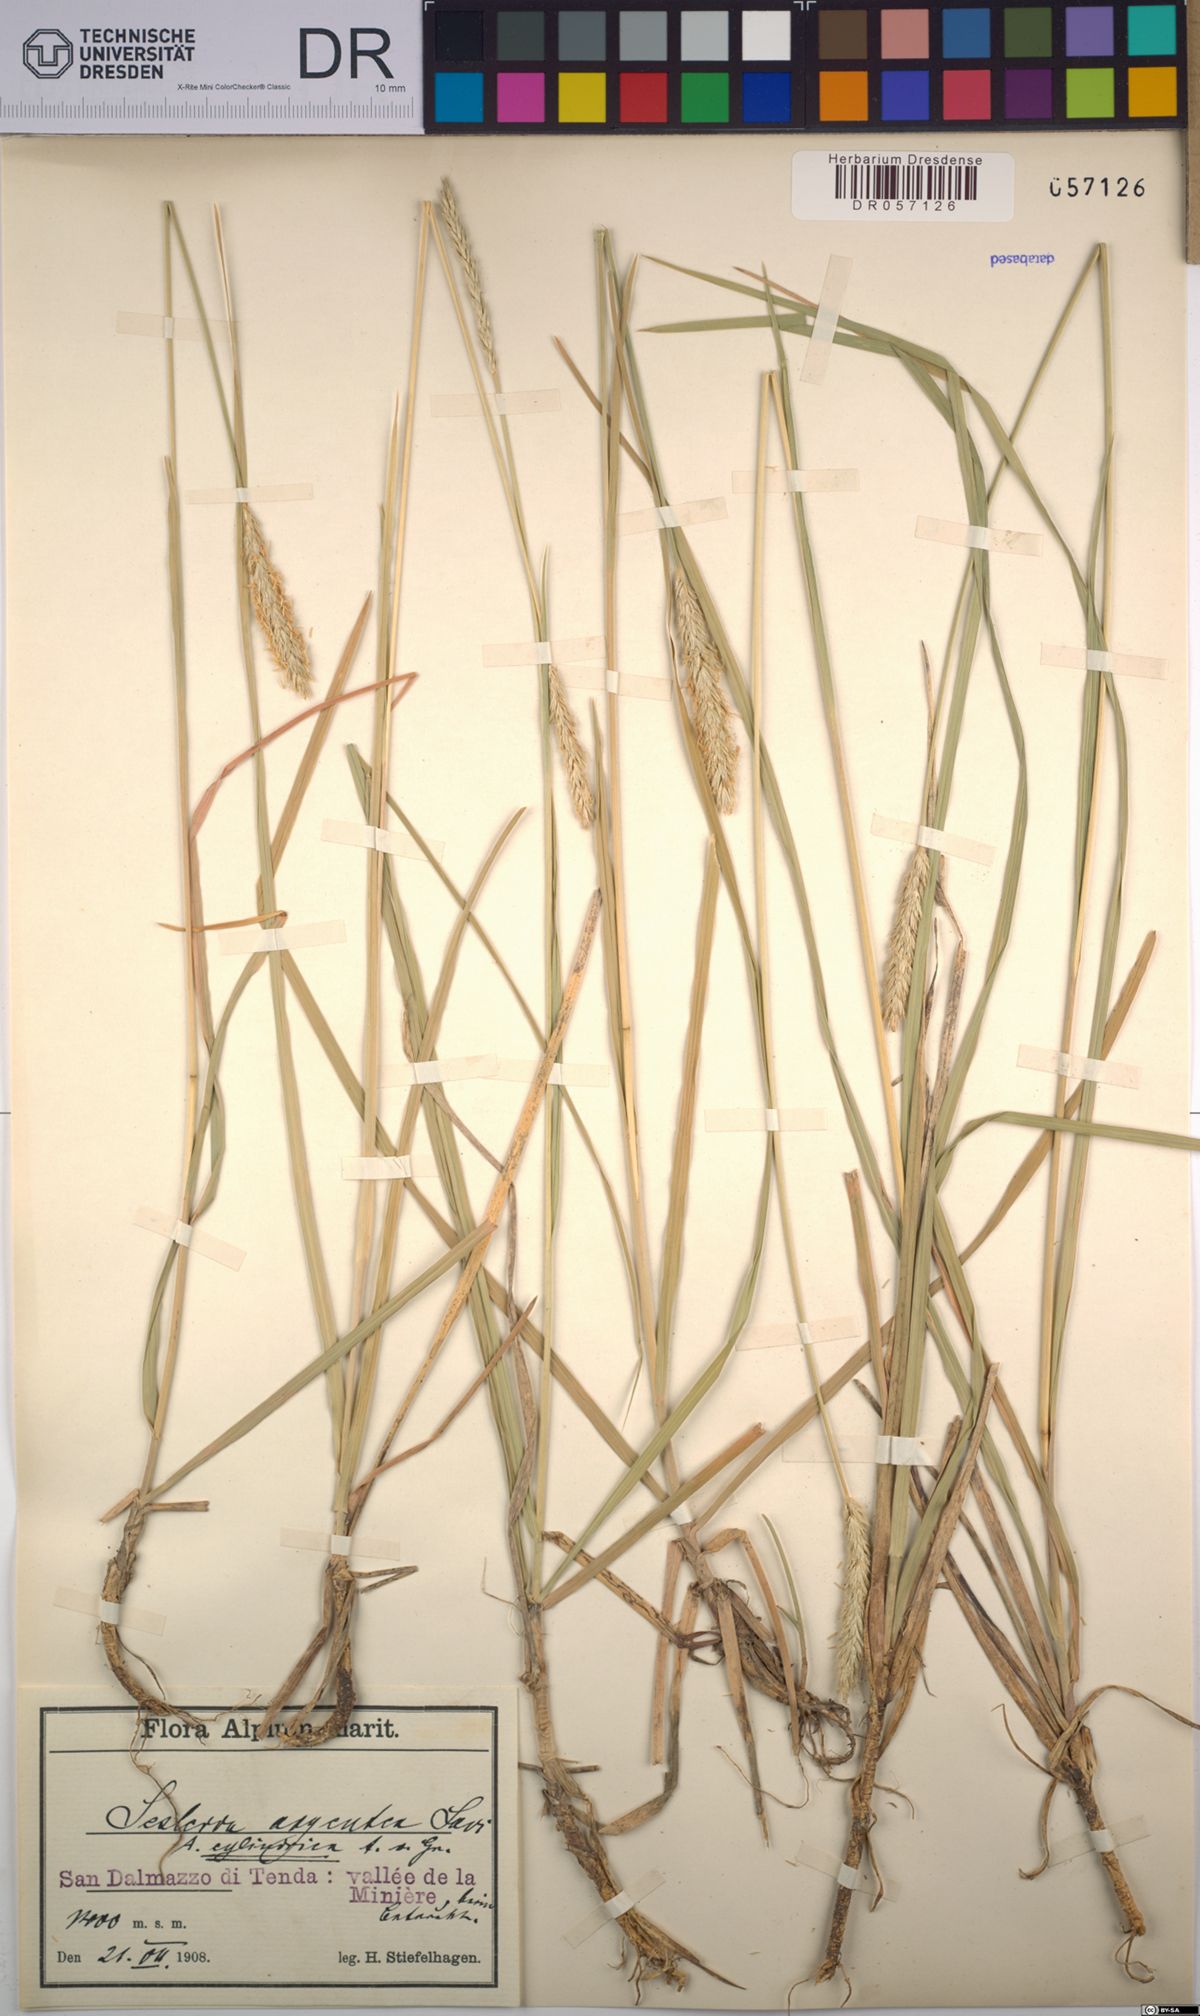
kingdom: Plantae
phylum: Tracheophyta
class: Liliopsida
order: Poales
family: Poaceae
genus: Sesleria
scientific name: Sesleria argentea
